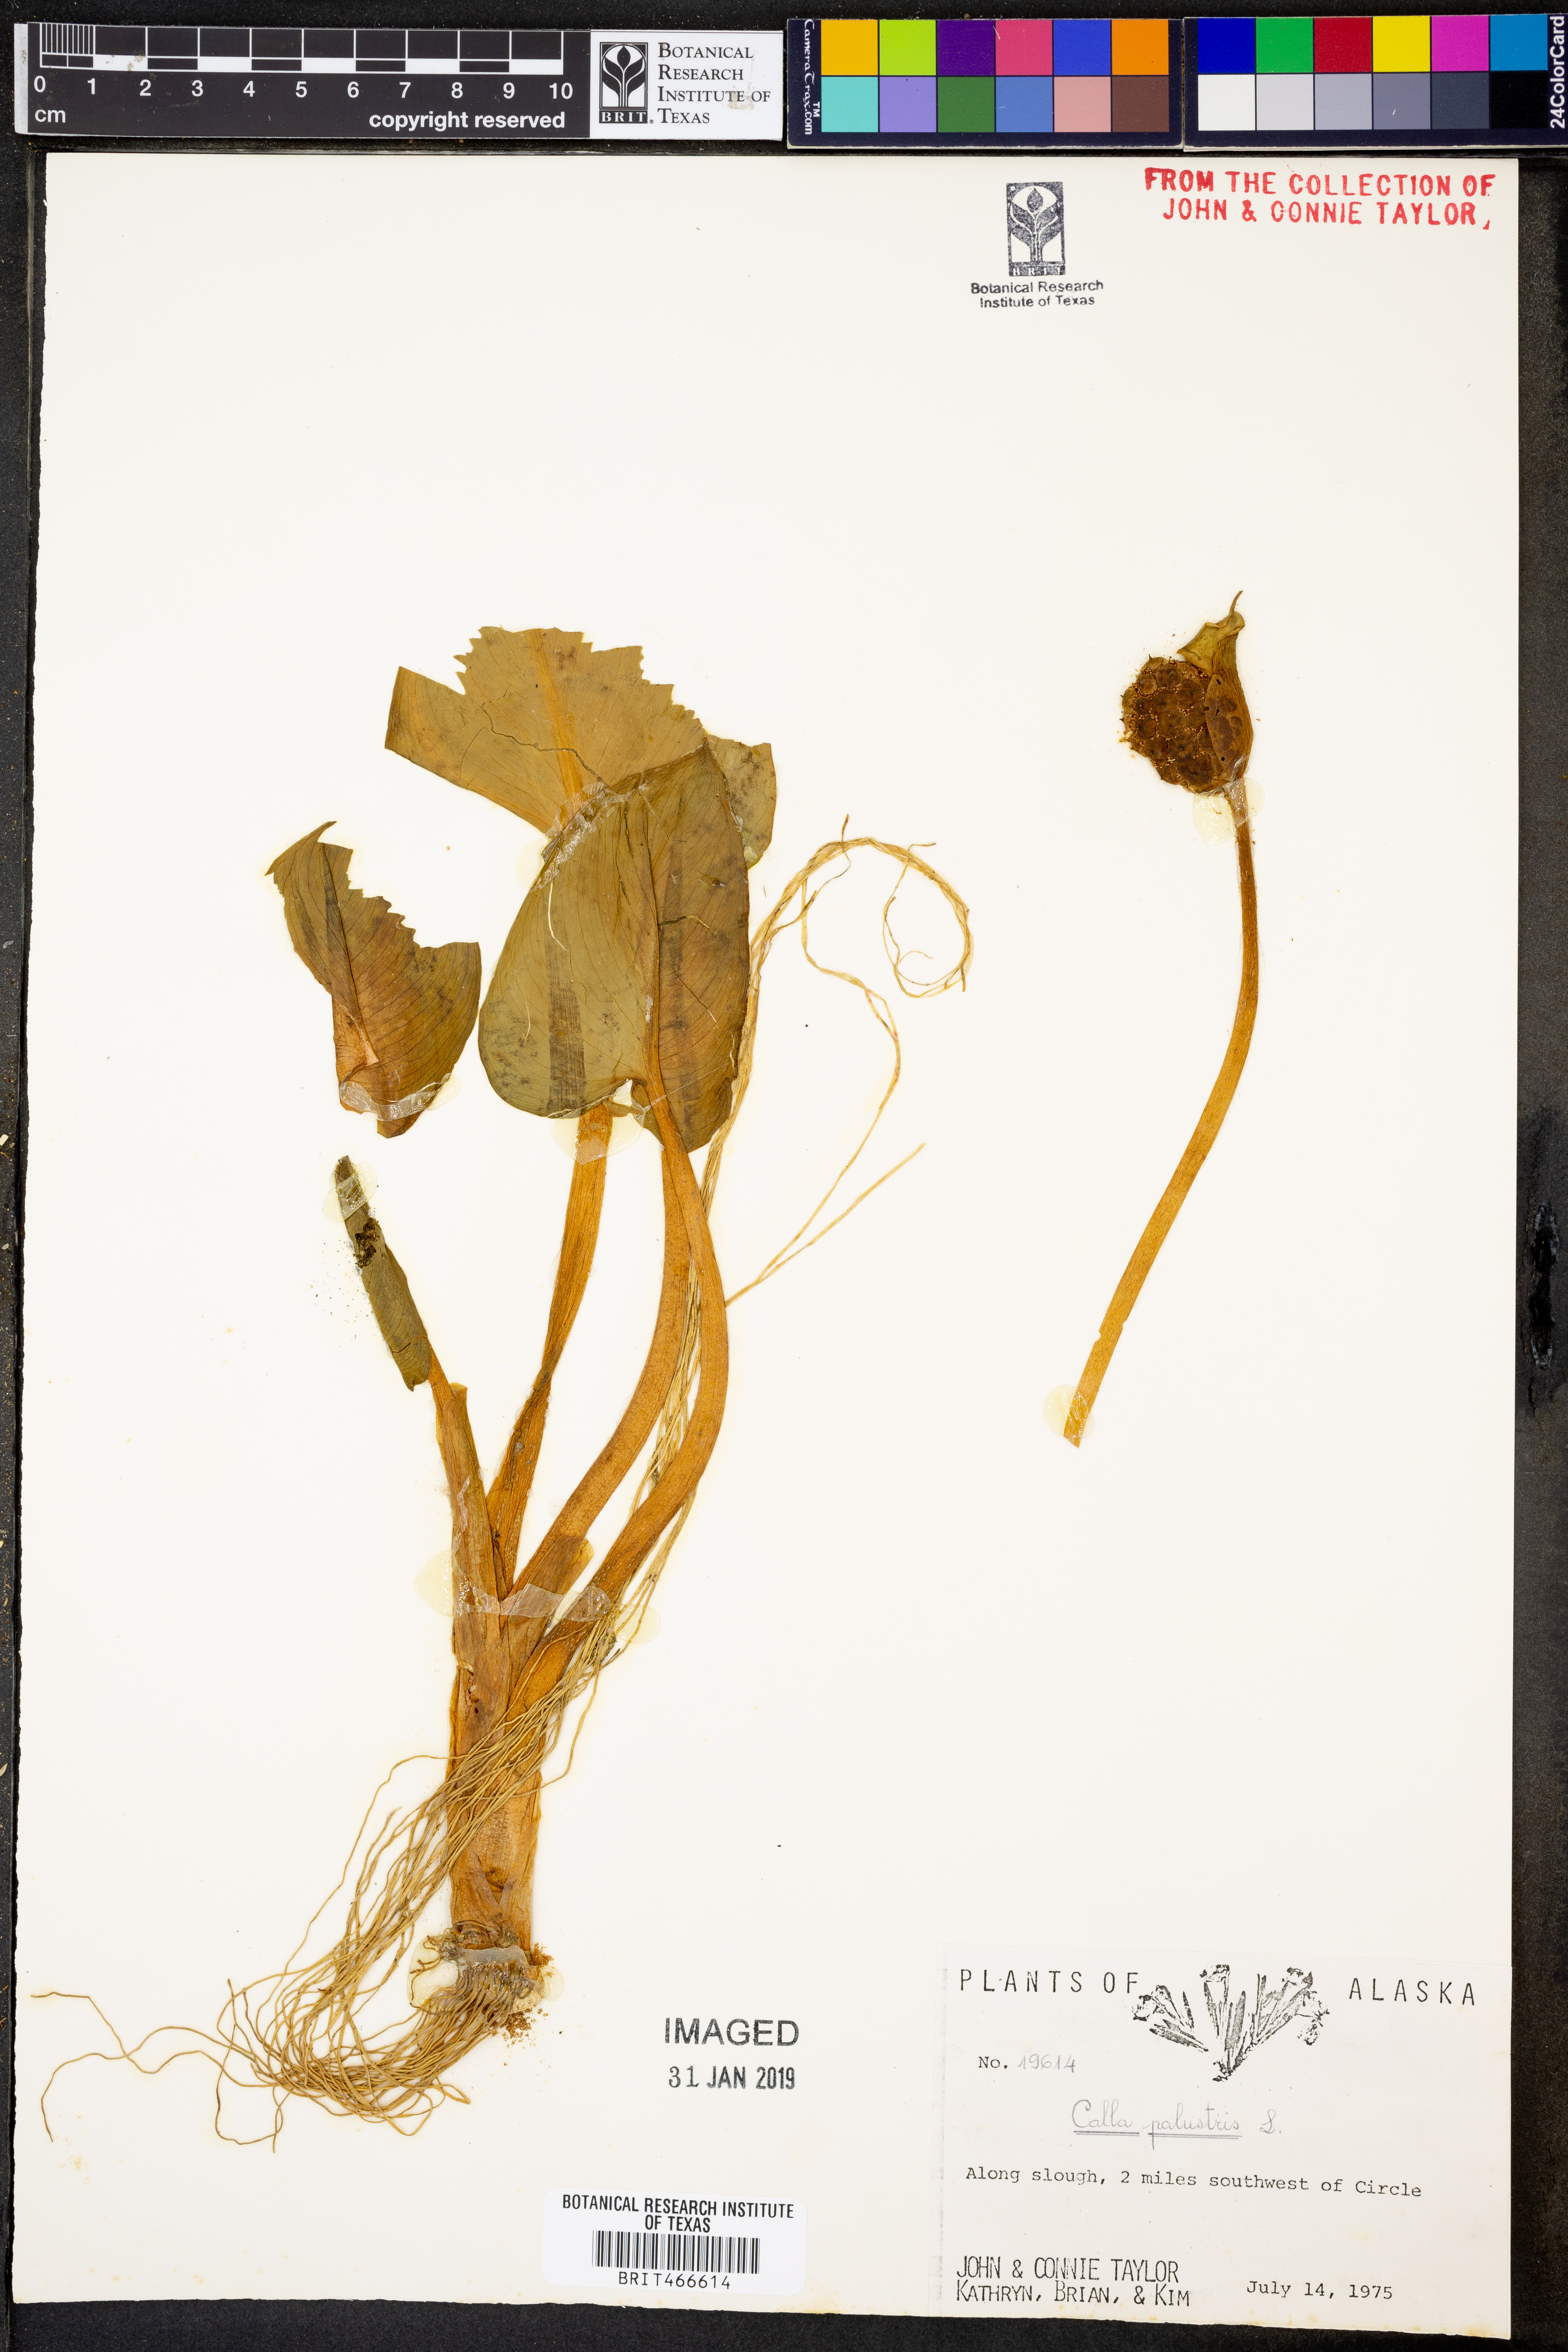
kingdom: Plantae
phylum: Tracheophyta
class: Liliopsida
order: Alismatales
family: Araceae
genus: Calla
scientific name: Calla palustris
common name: Bog arum
